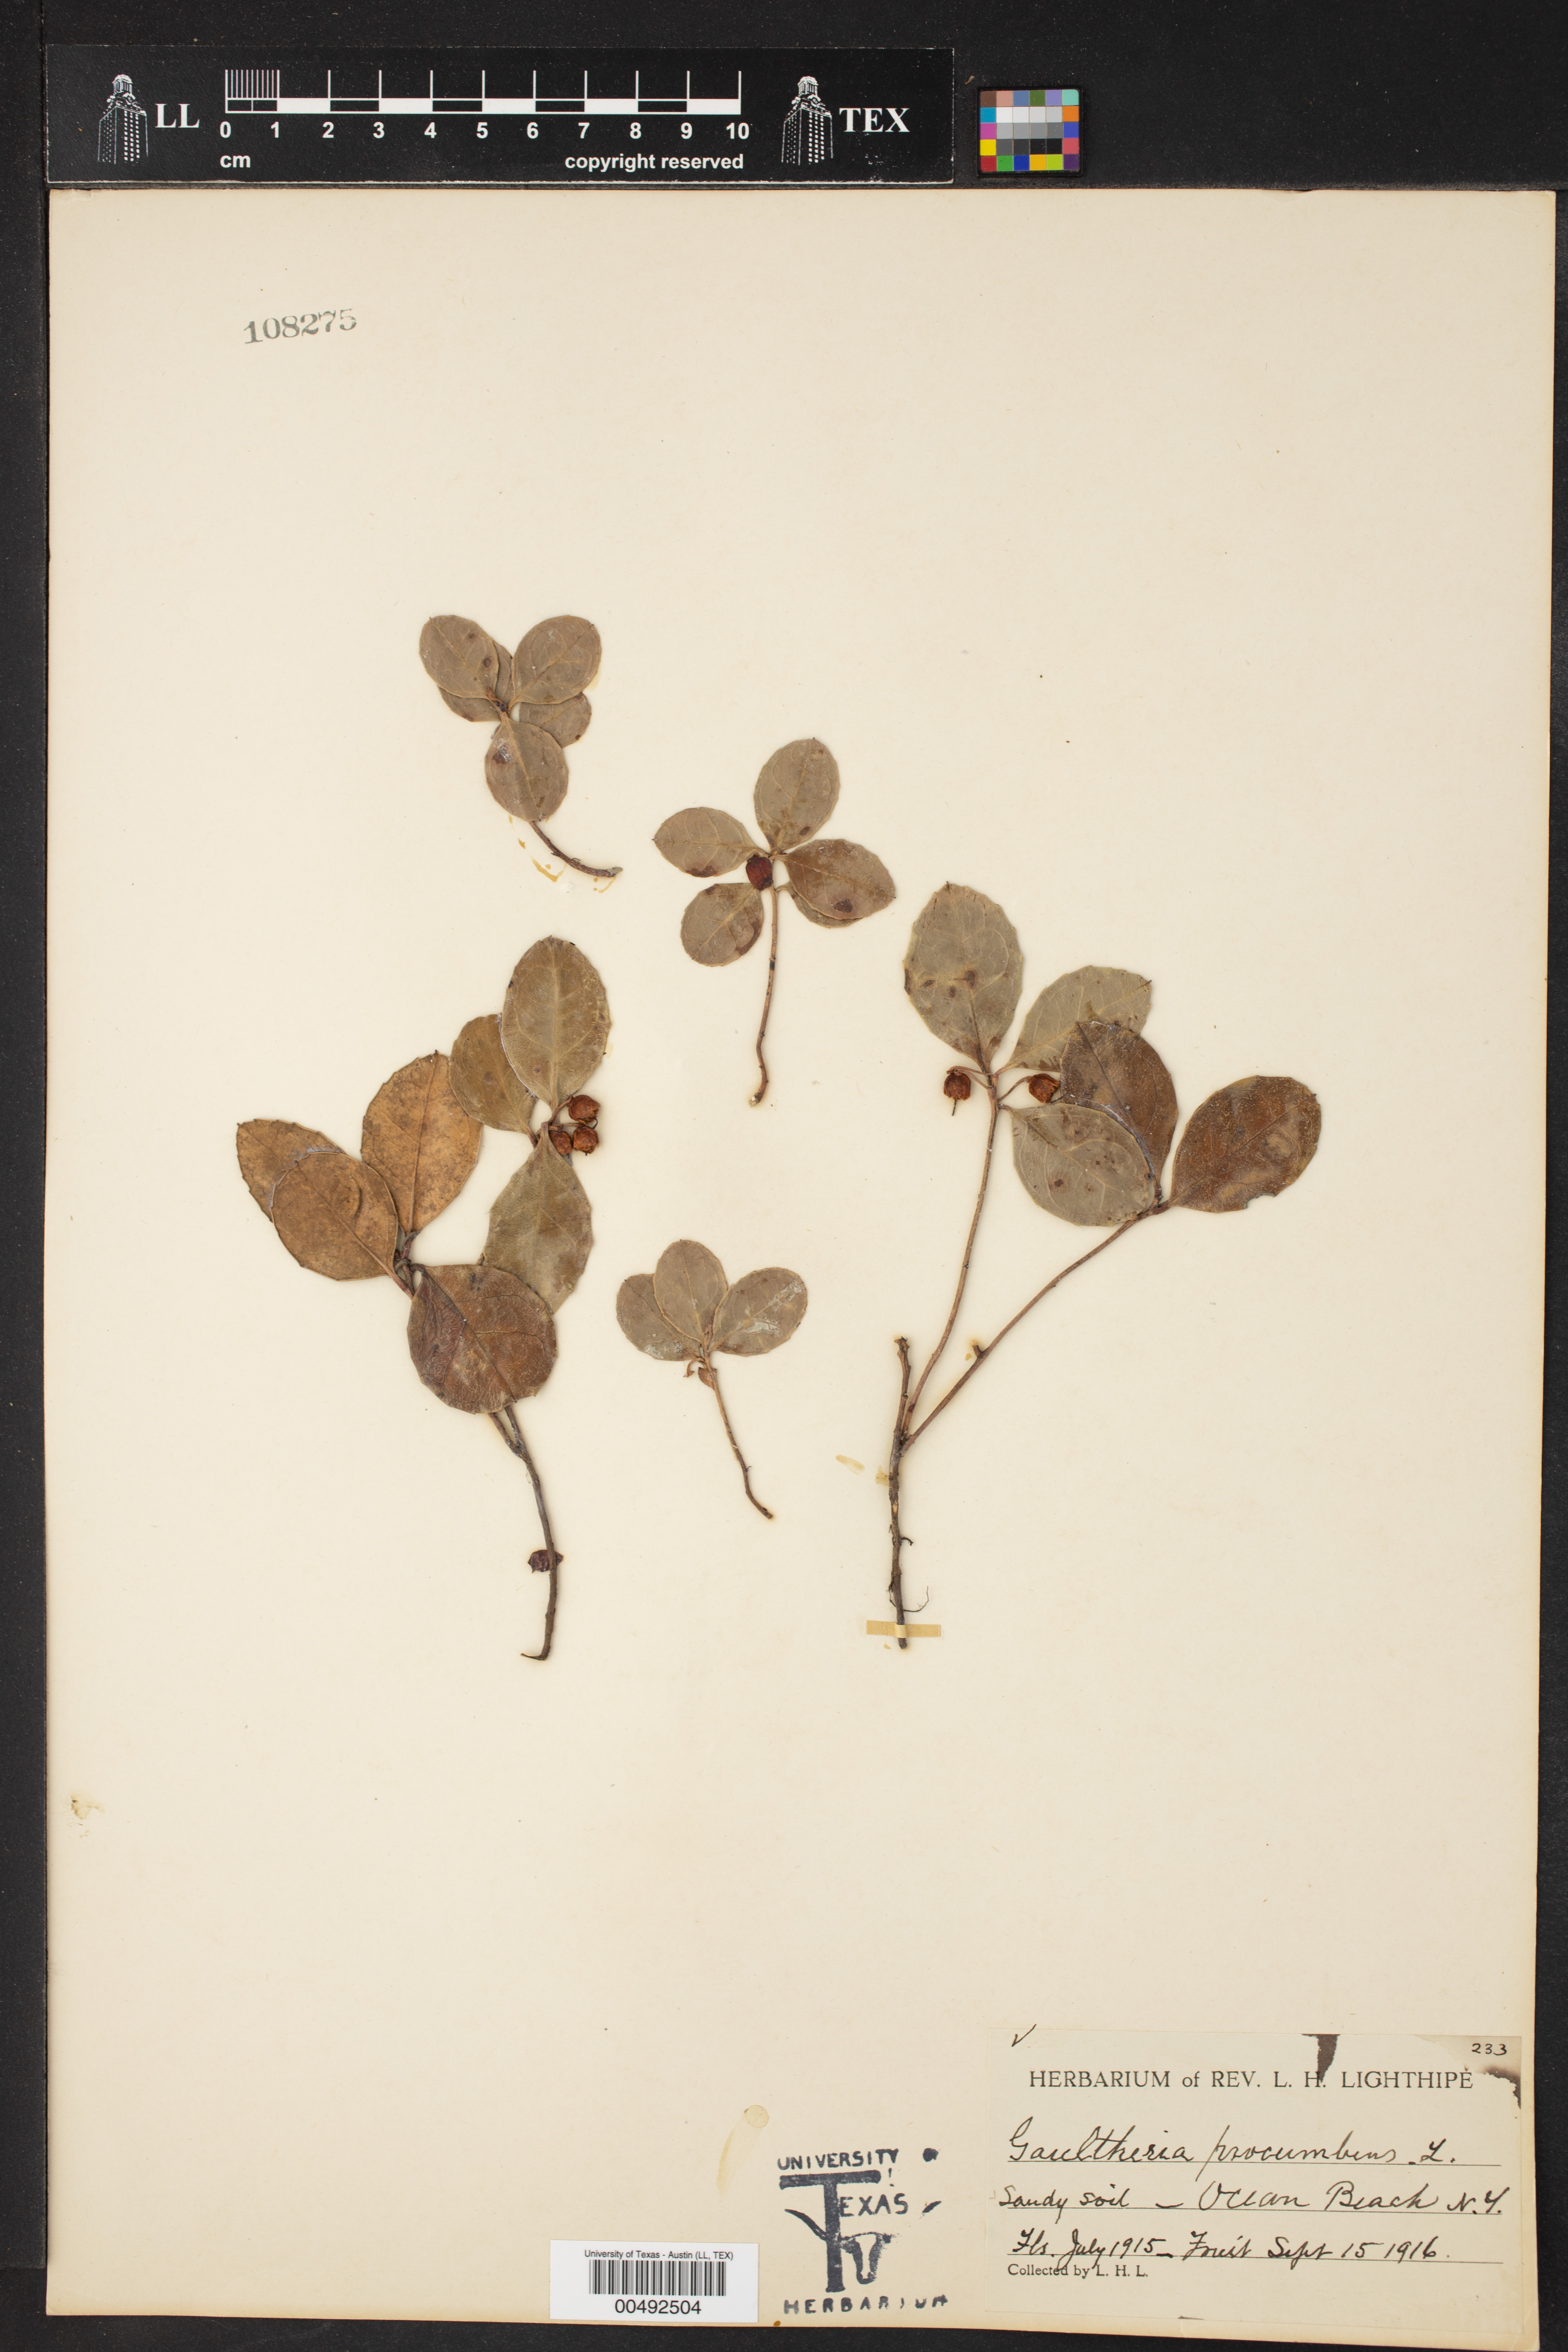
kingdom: Plantae
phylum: Tracheophyta
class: Magnoliopsida
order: Ericales
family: Ericaceae
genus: Gaultheria
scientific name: Gaultheria procumbens
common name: Checkerberry
